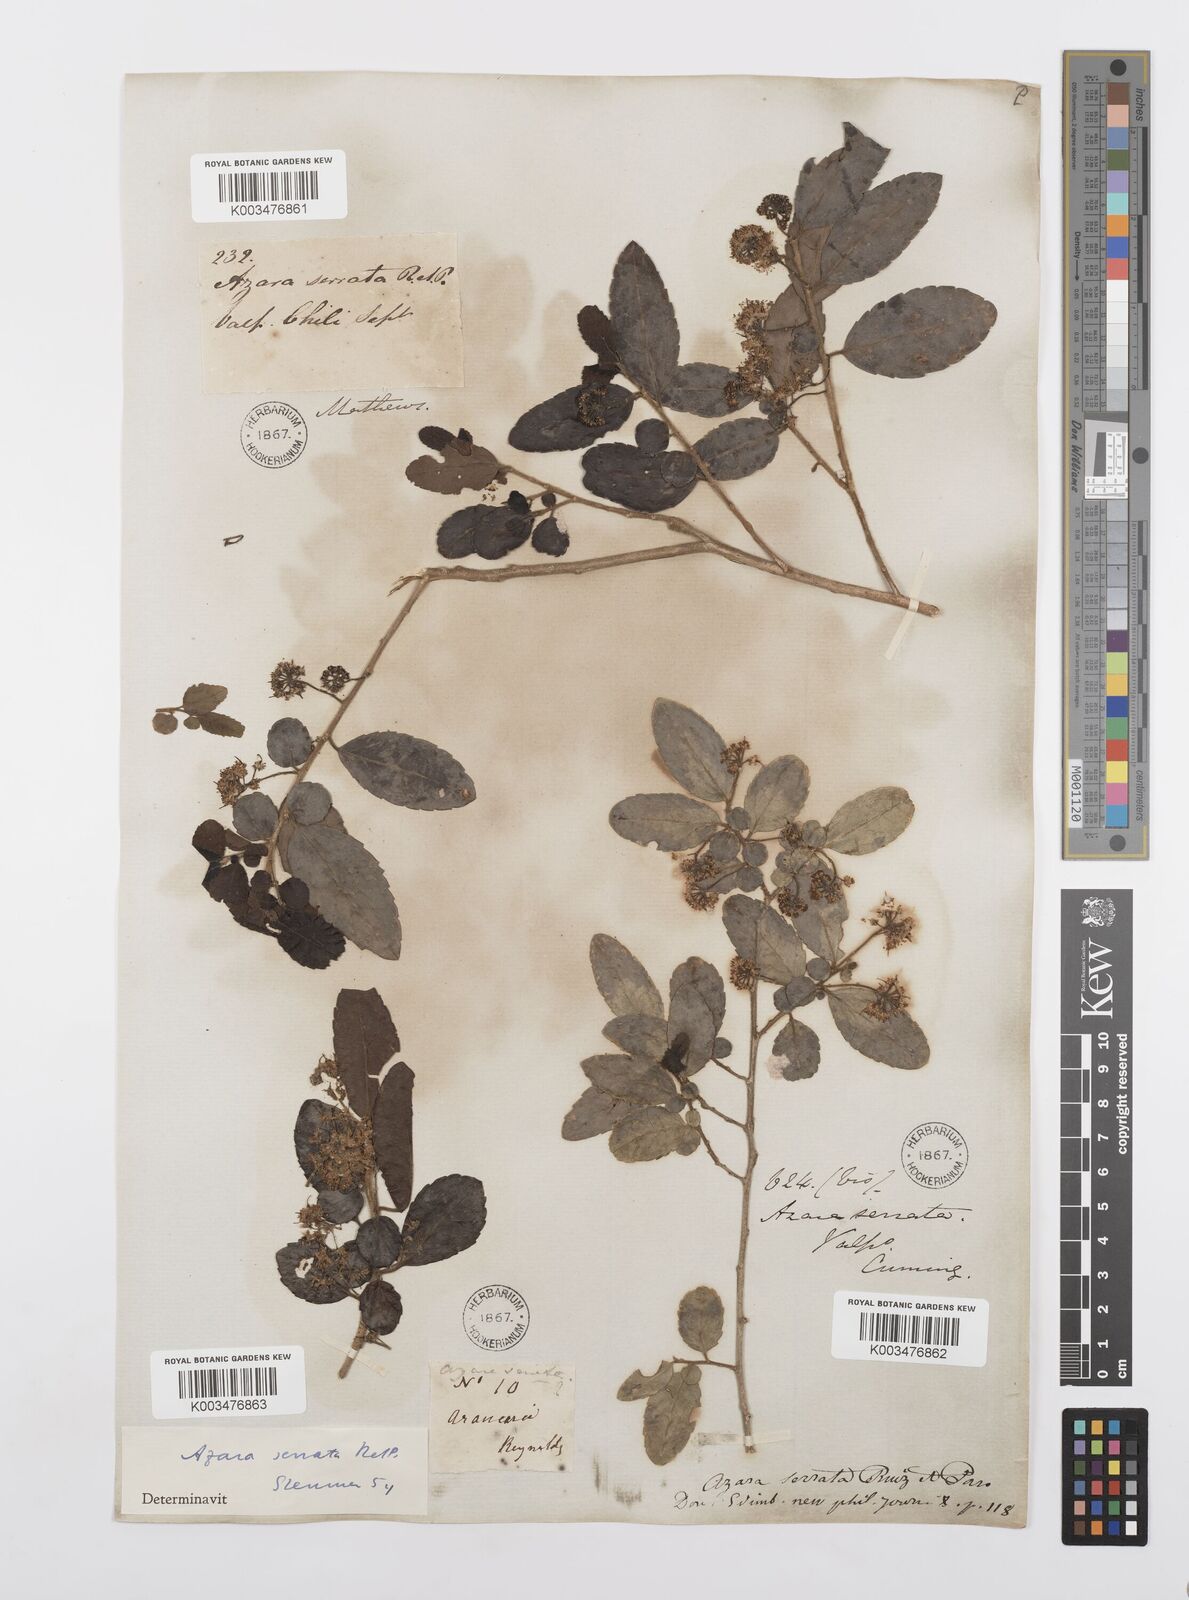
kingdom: Plantae
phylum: Tracheophyta
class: Magnoliopsida
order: Malpighiales
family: Salicaceae
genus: Azara
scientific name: Azara serrata
